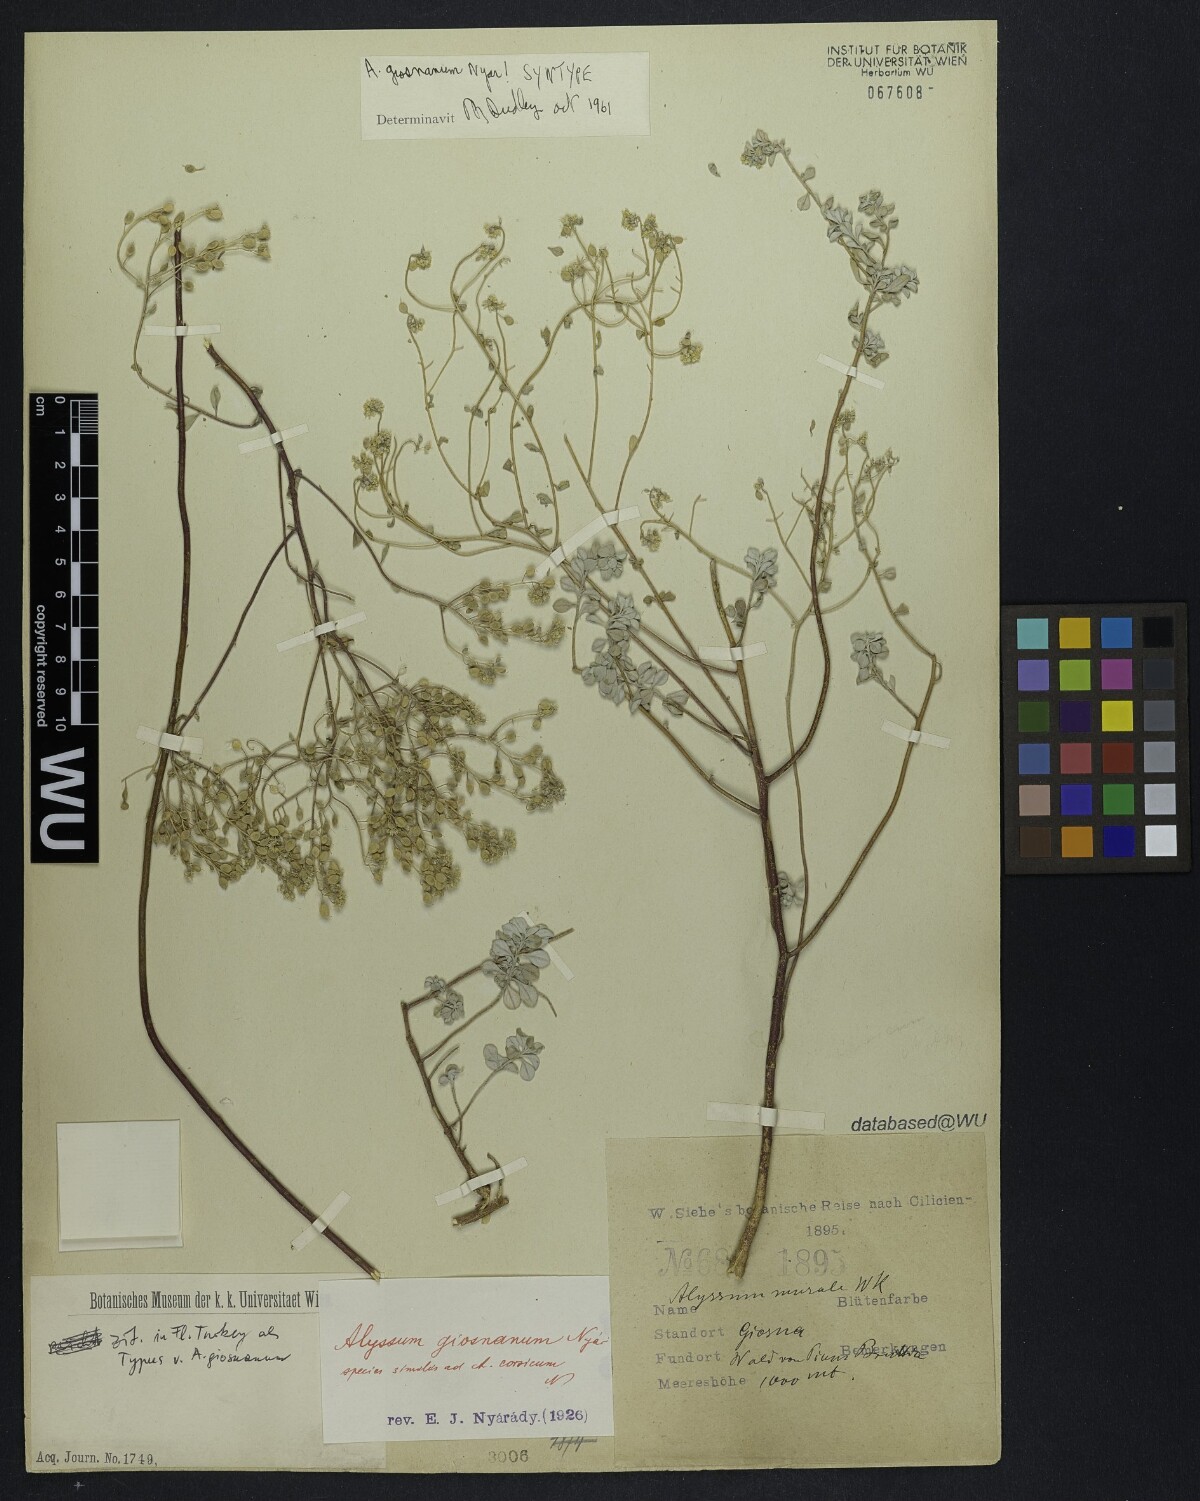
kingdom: Plantae
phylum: Tracheophyta
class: Magnoliopsida
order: Brassicales
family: Brassicaceae
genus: Odontarrhena
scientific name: Odontarrhena giosnana
